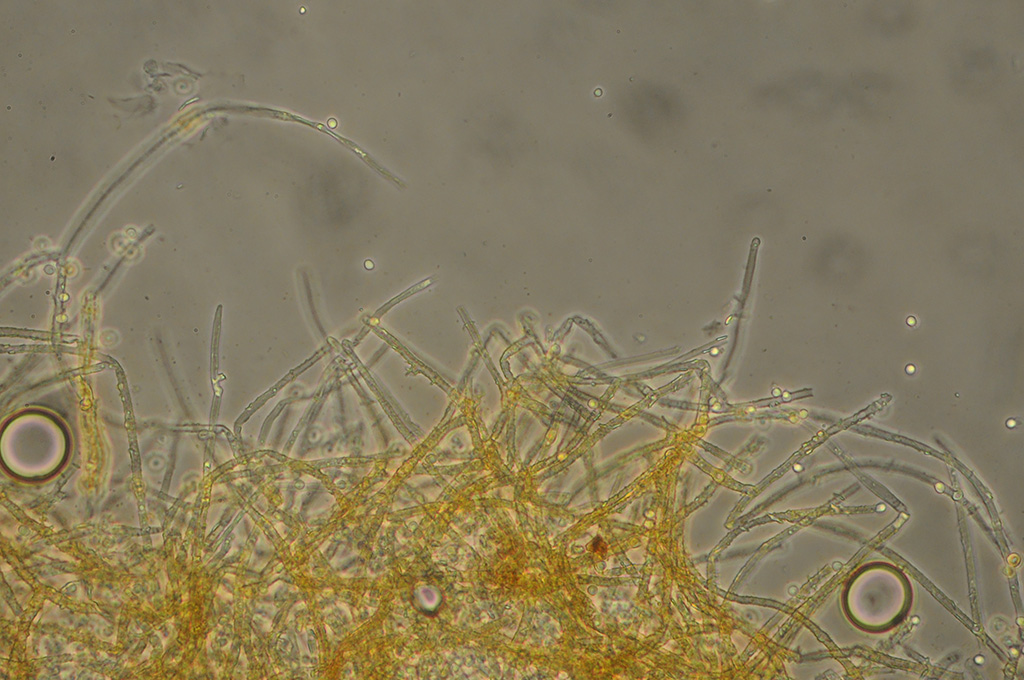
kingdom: Fungi
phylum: Basidiomycota
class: Agaricomycetes
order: Atheliales
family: Atheliaceae
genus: Piloderma
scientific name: Piloderma bicolor
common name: gul førnehinde
